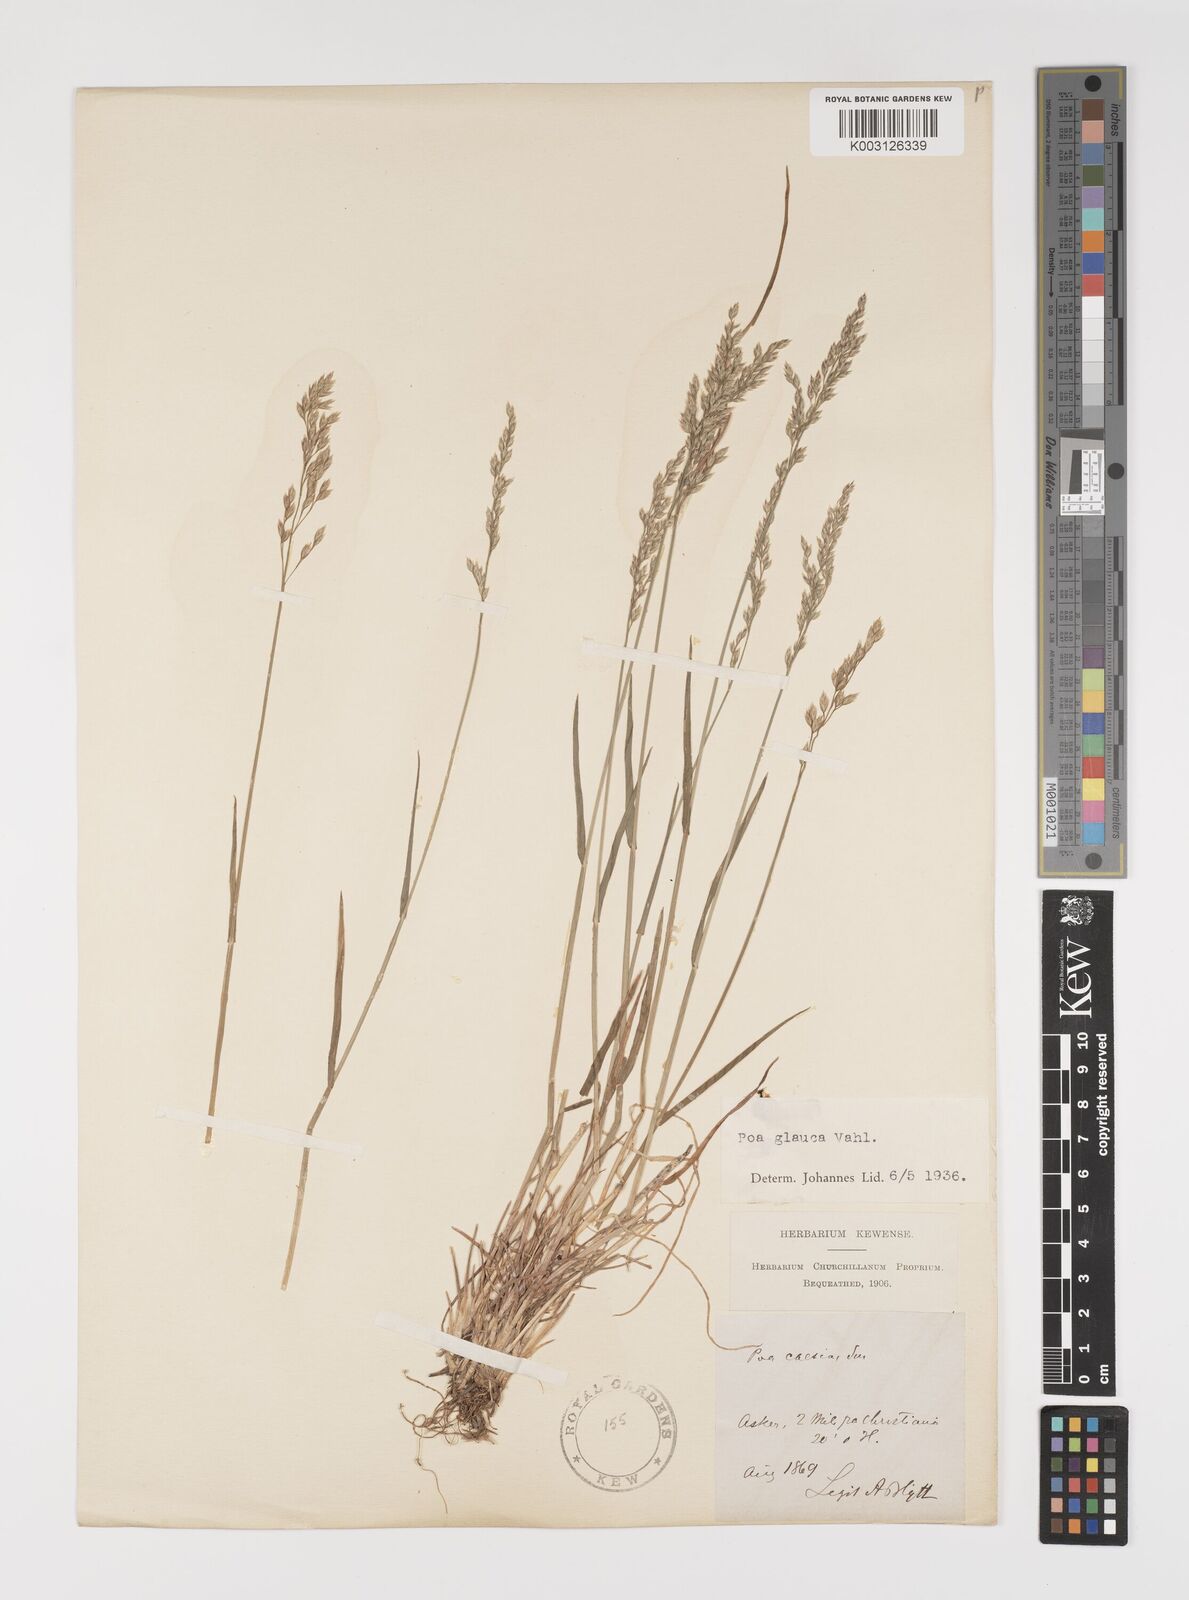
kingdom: Plantae
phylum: Tracheophyta
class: Liliopsida
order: Poales
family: Poaceae
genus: Poa
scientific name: Poa glauca
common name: Glaucous bluegrass
